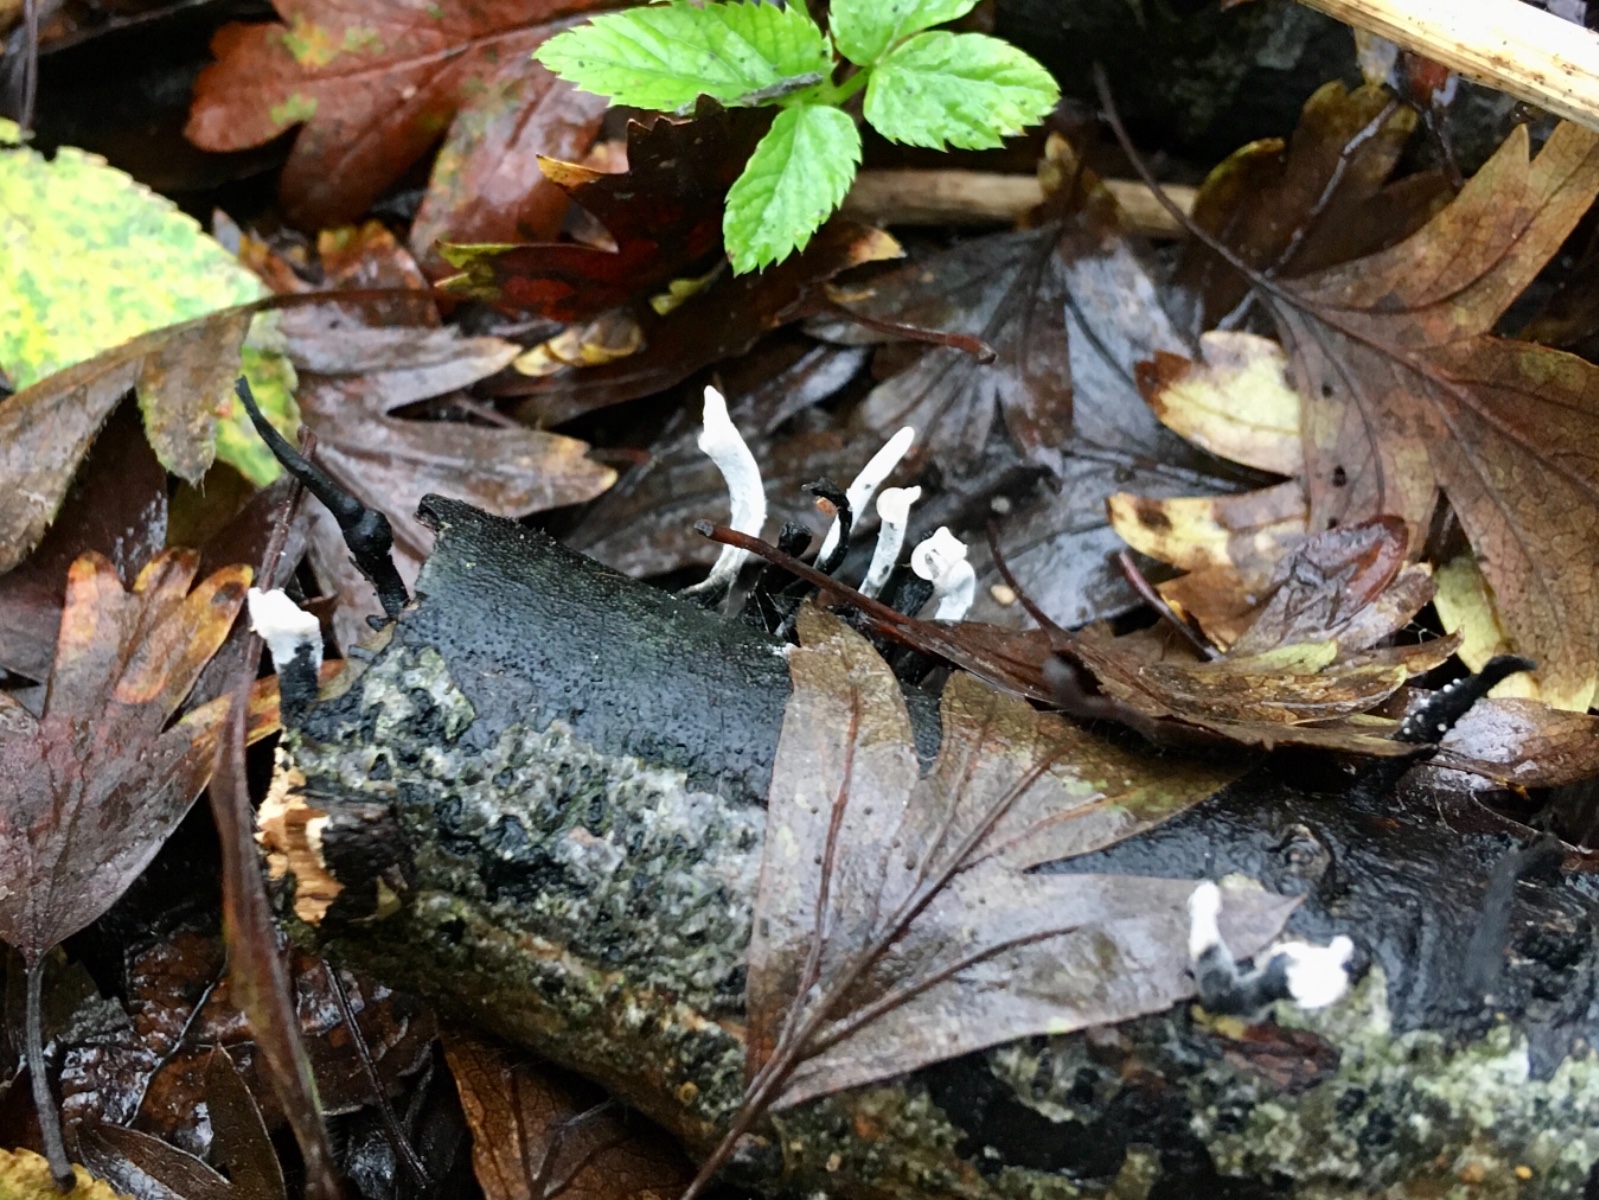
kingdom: Fungi
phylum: Ascomycota
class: Sordariomycetes
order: Xylariales
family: Xylariaceae
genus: Xylaria
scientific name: Xylaria hypoxylon
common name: grenet stødsvamp
